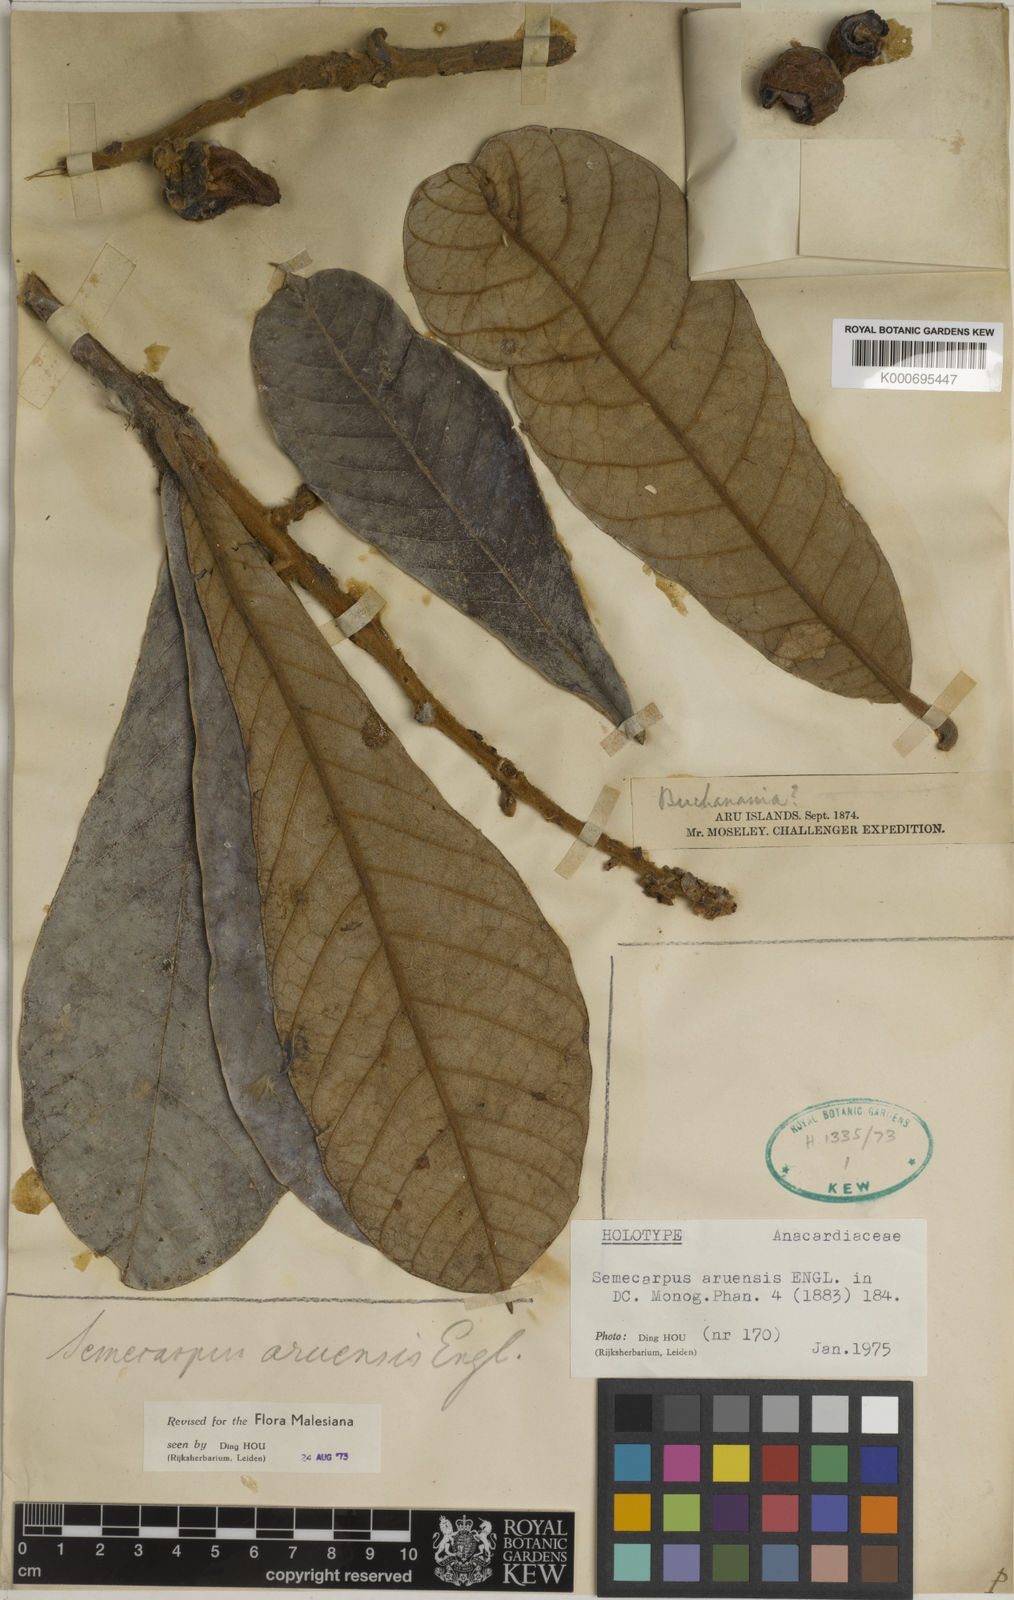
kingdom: Plantae
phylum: Tracheophyta
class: Magnoliopsida
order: Sapindales
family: Anacardiaceae
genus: Semecarpus
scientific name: Semecarpus aruensis
